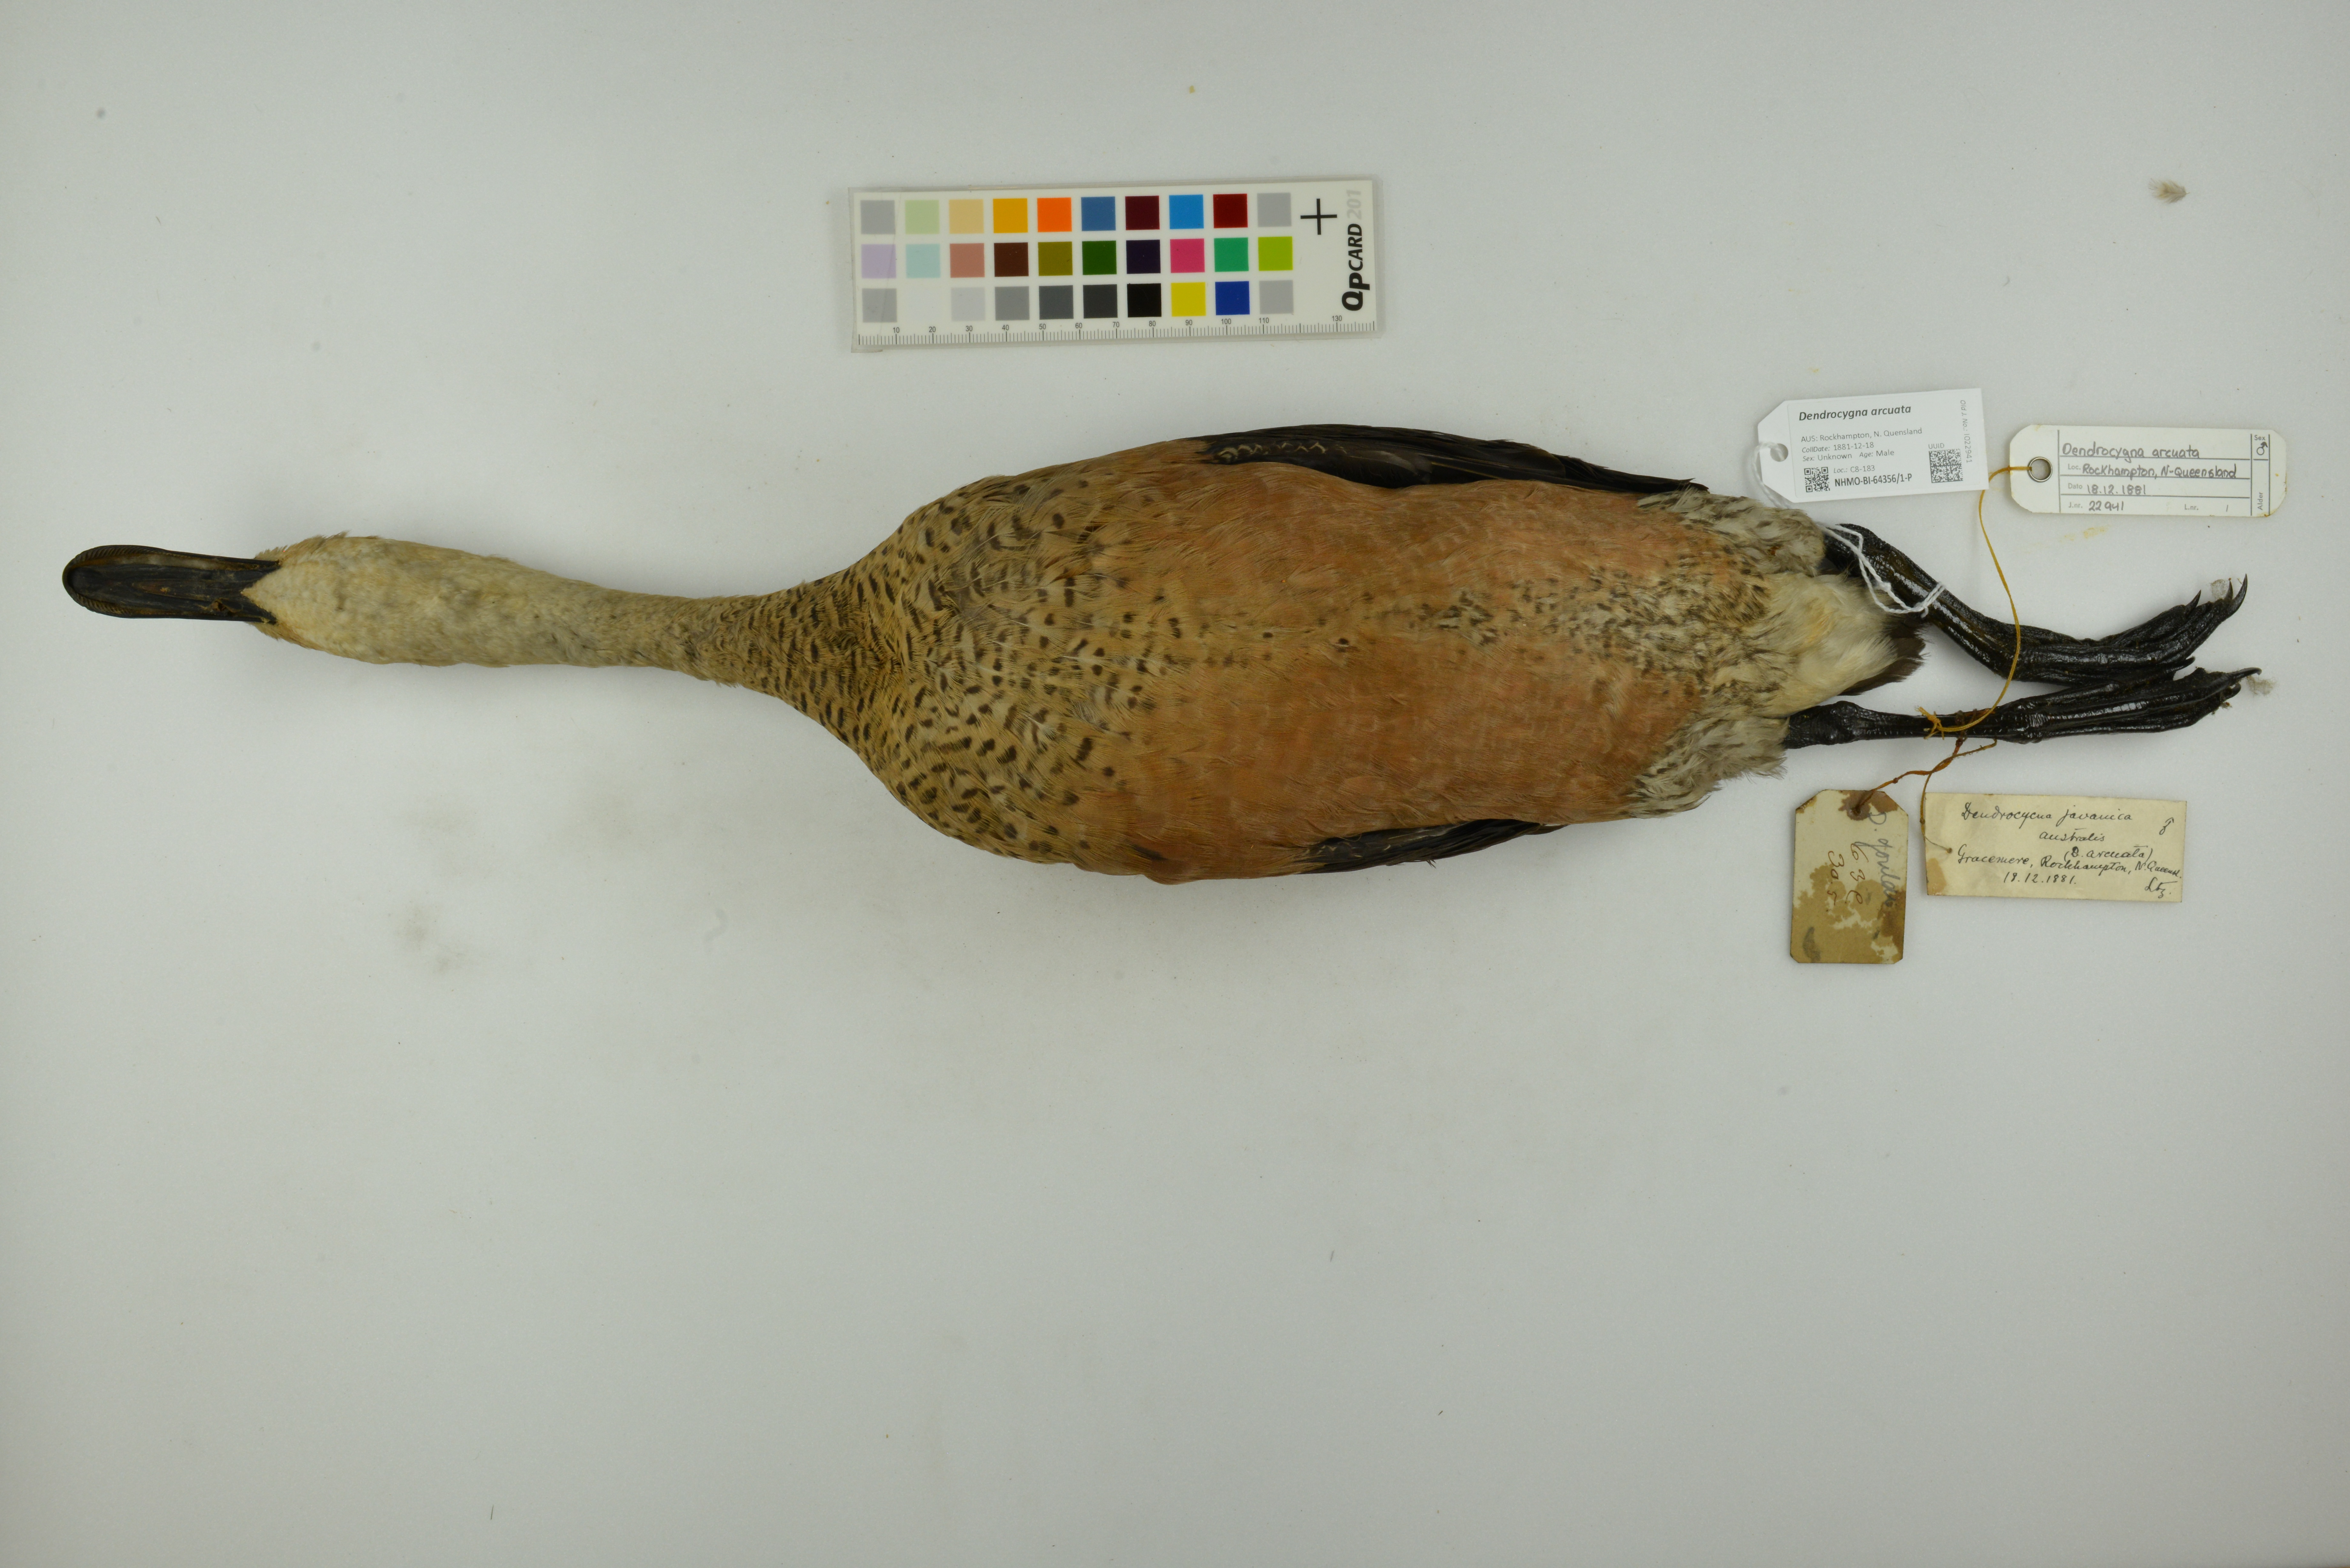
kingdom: Animalia
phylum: Chordata
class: Aves
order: Anseriformes
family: Anatidae
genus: Dendrocygna
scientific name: Dendrocygna arcuata
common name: Wandering whistling-duck
